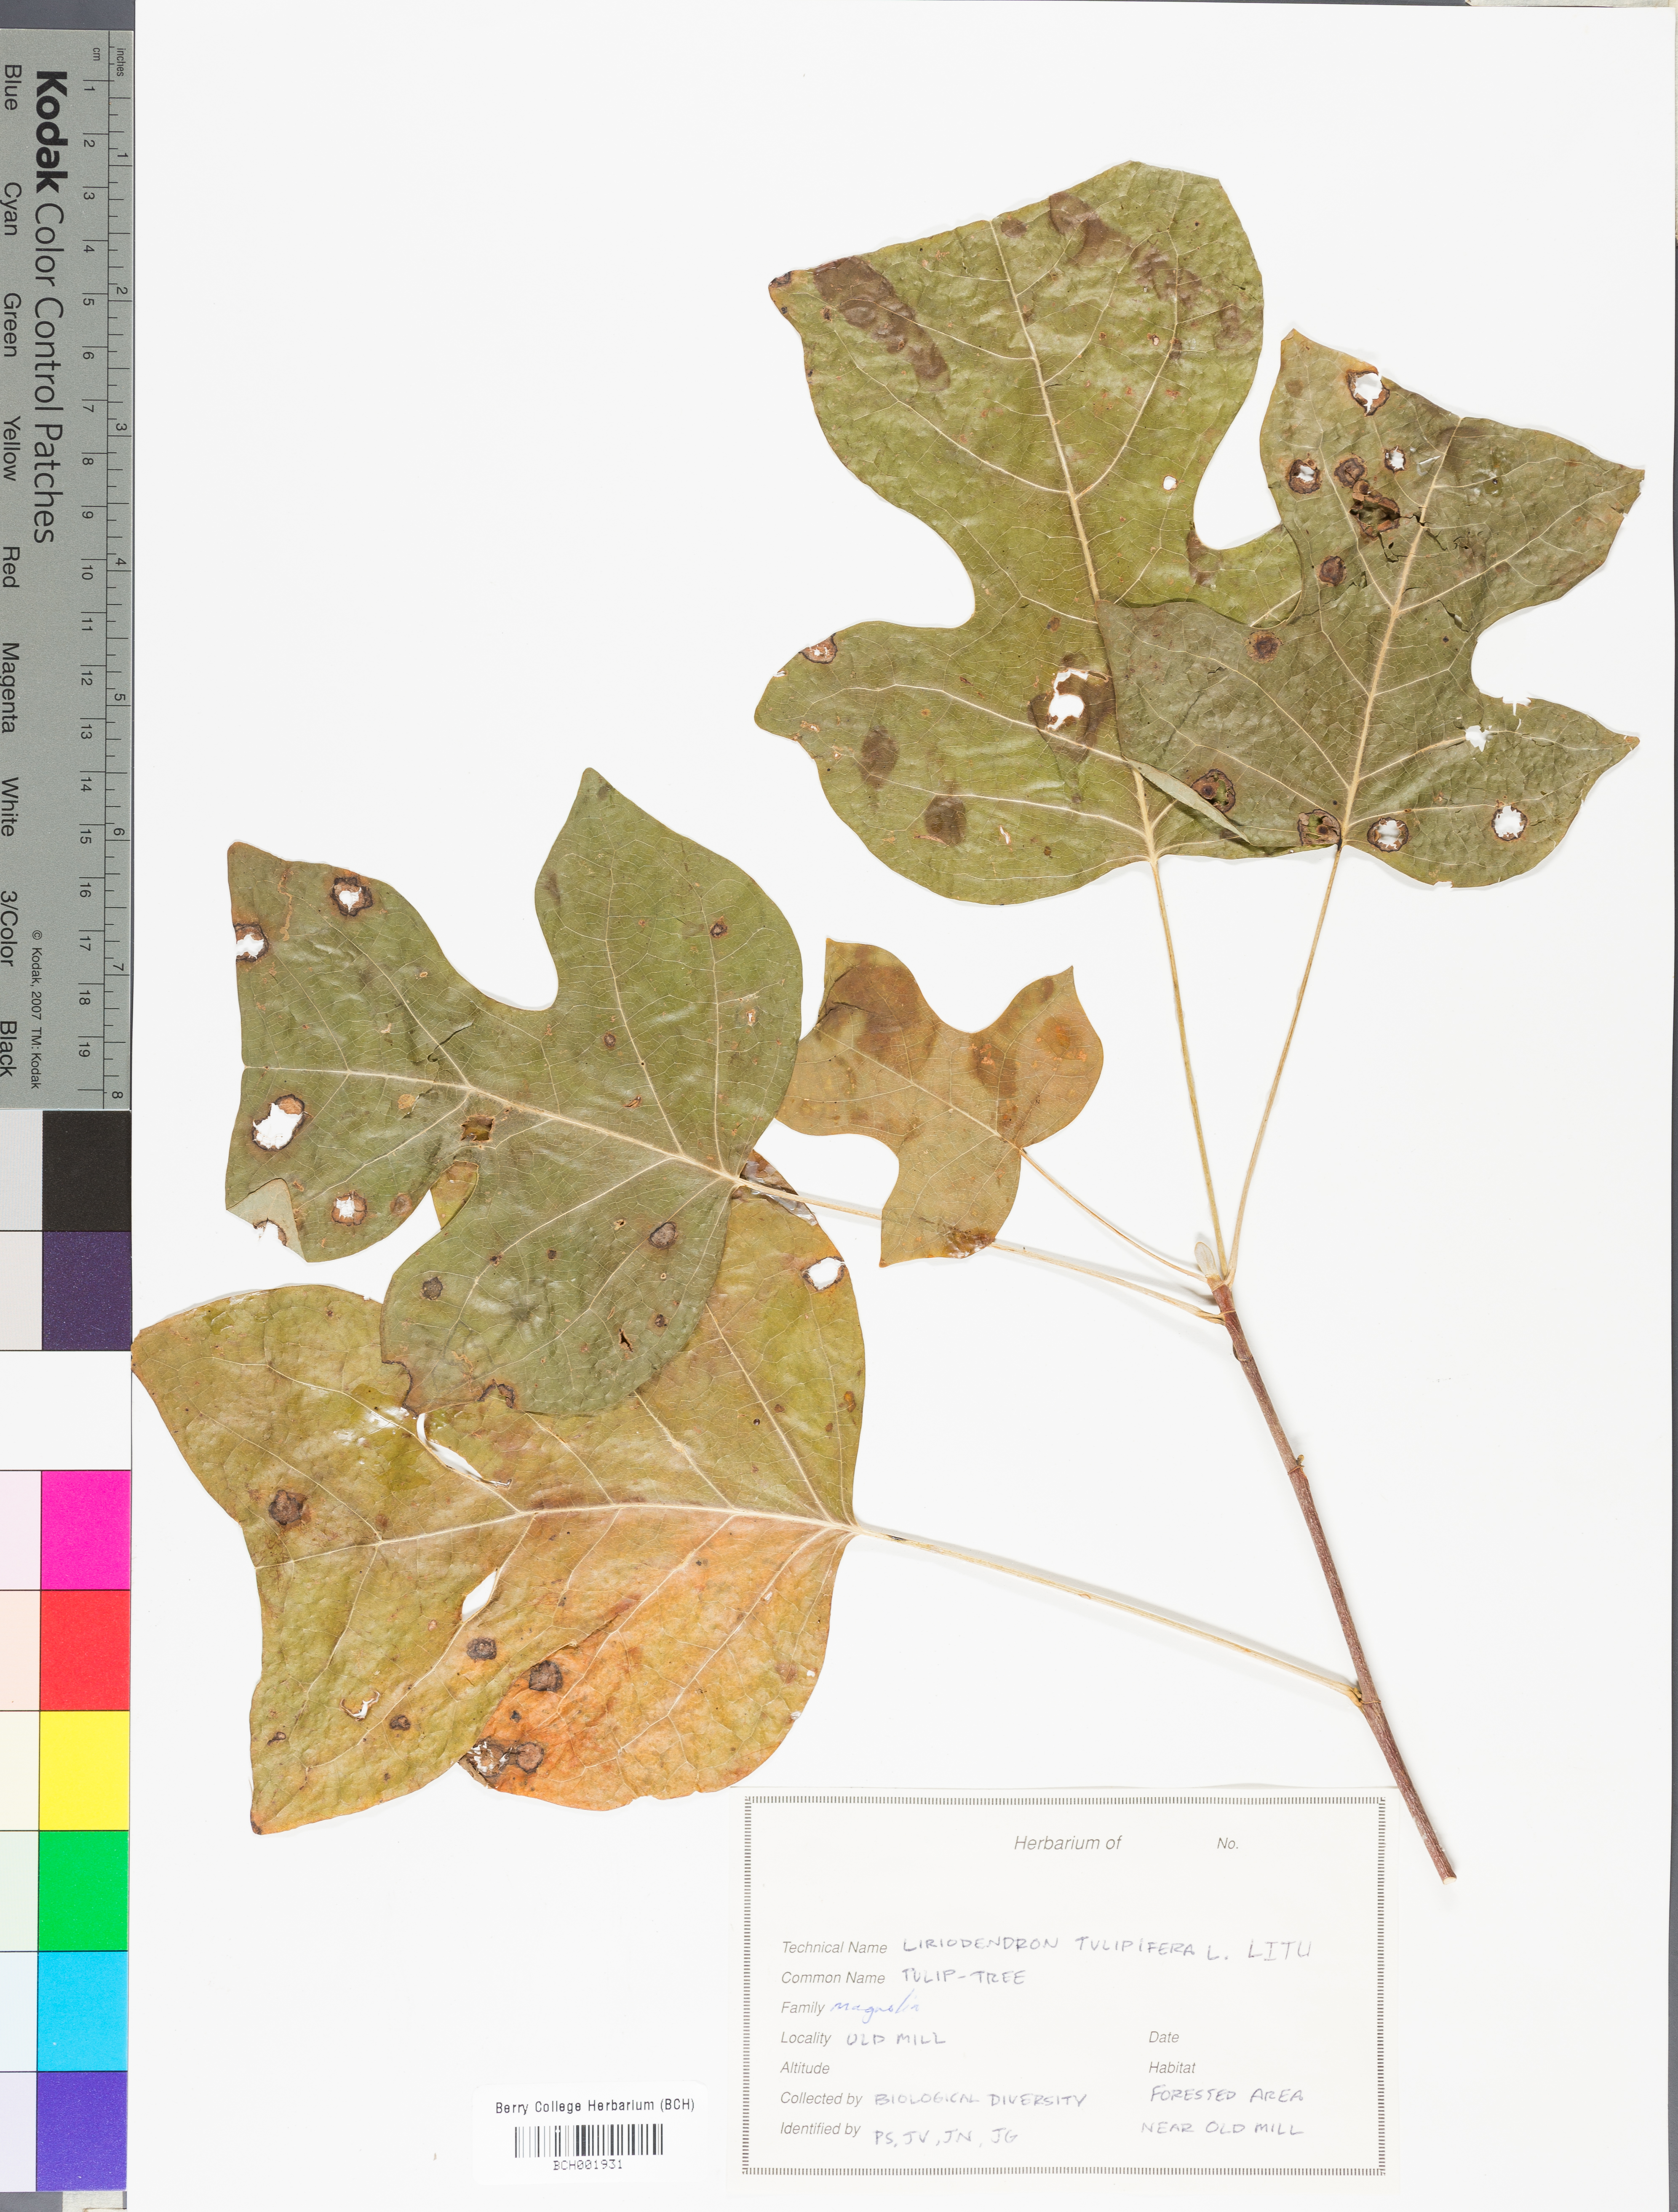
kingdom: Plantae
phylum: Tracheophyta
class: Magnoliopsida
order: Magnoliales
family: Magnoliaceae
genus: Liriodendron
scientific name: Liriodendron tulipifera
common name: Tulip tree
